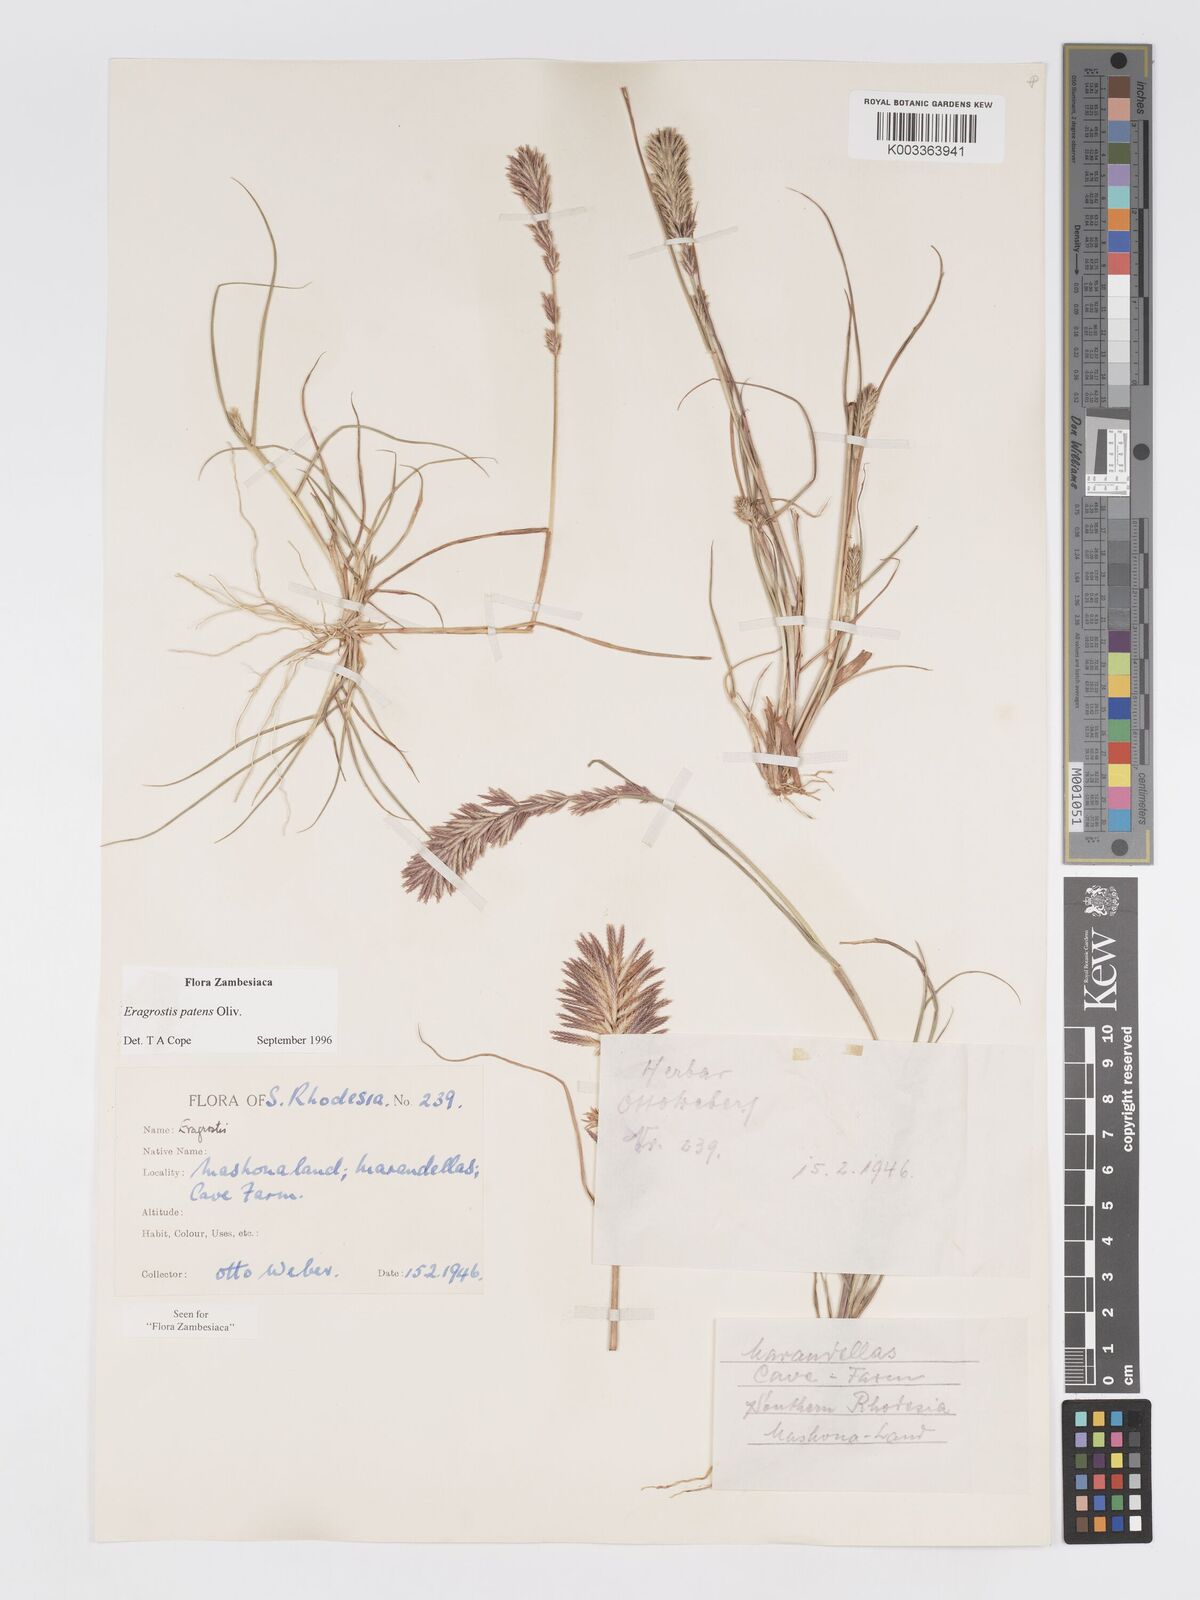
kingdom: Plantae
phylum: Tracheophyta
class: Liliopsida
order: Poales
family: Poaceae
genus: Eragrostis
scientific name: Eragrostis patens
